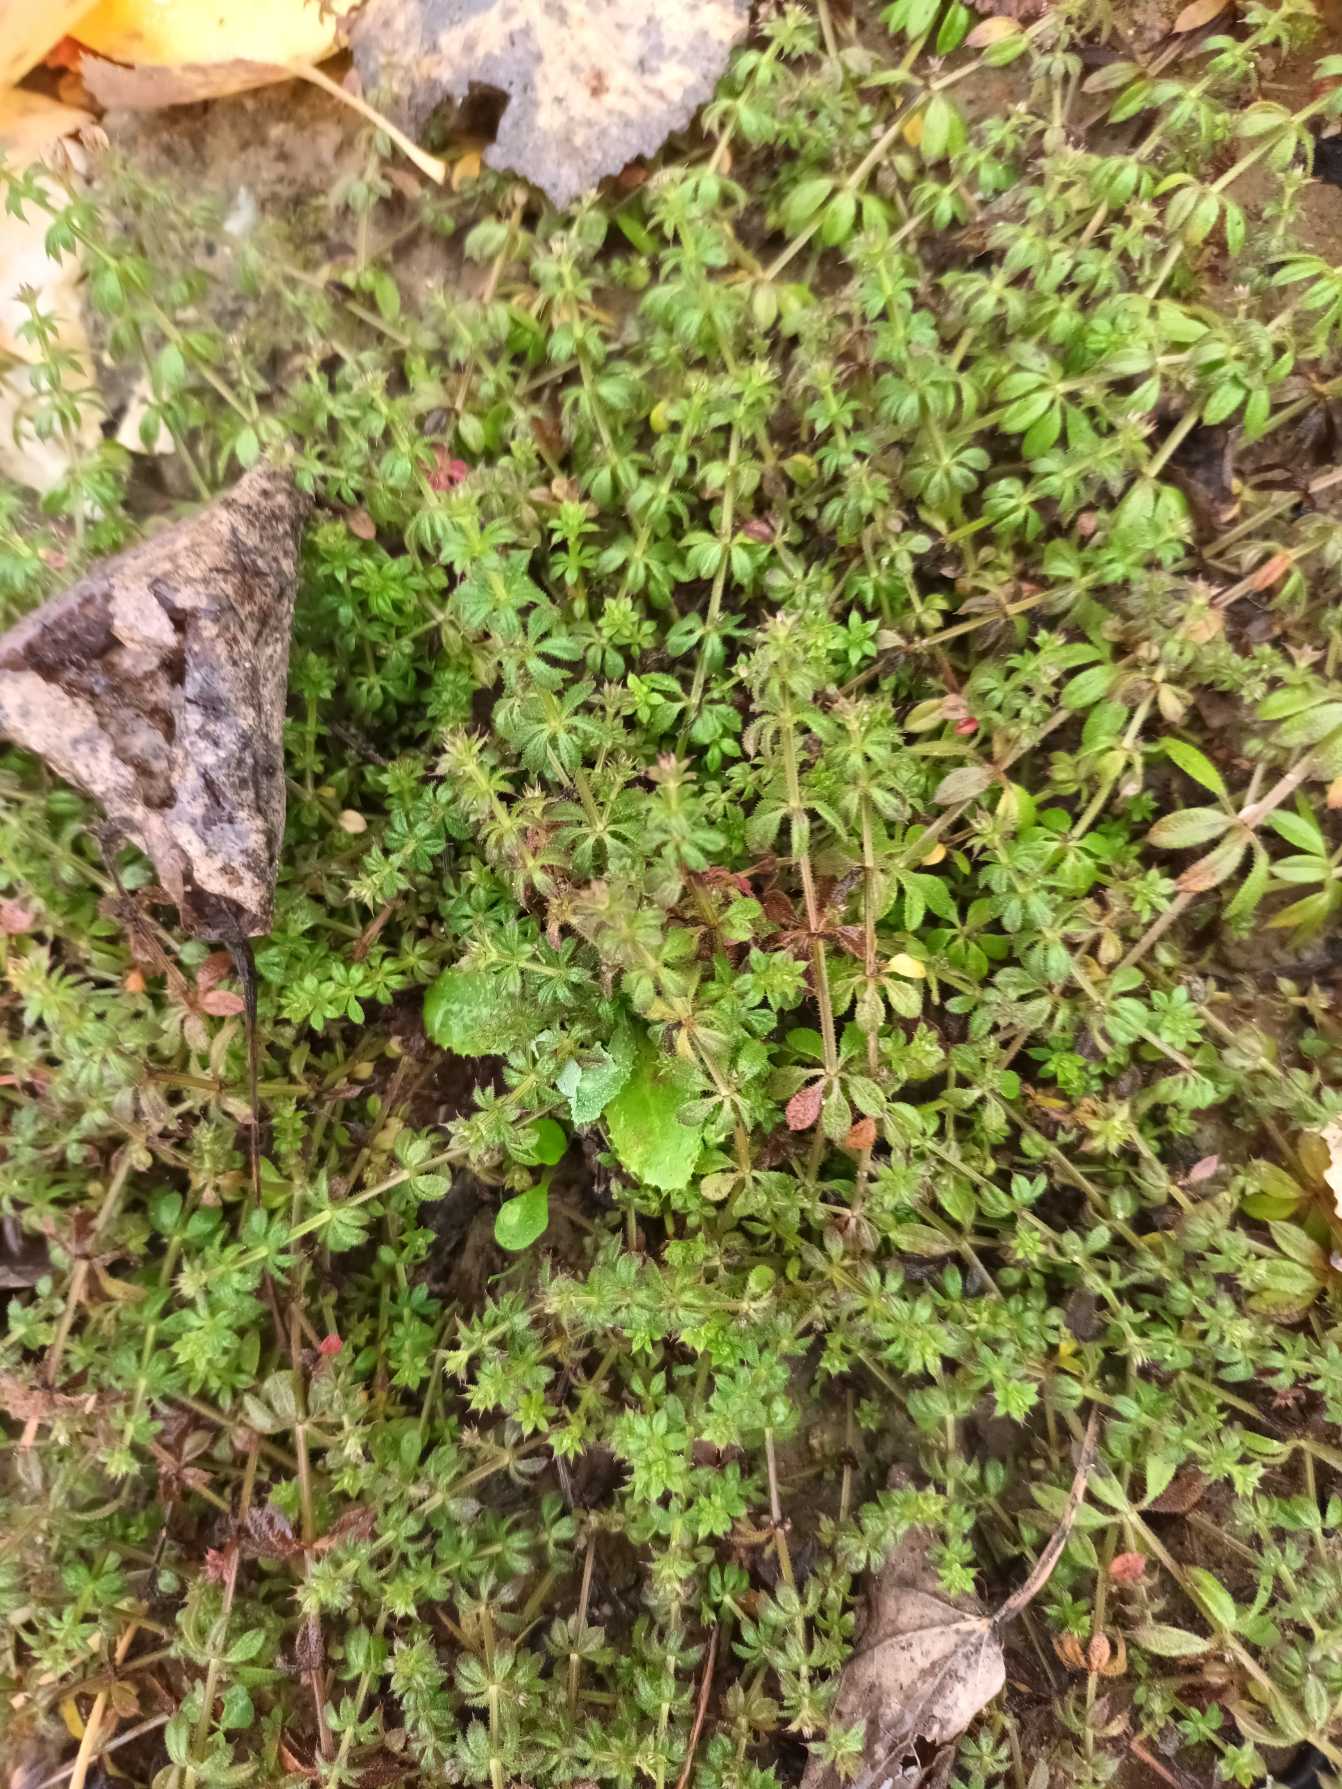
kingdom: Plantae
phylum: Tracheophyta
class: Magnoliopsida
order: Gentianales
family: Rubiaceae
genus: Galium
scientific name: Galium aparine
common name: Burre-snerre
